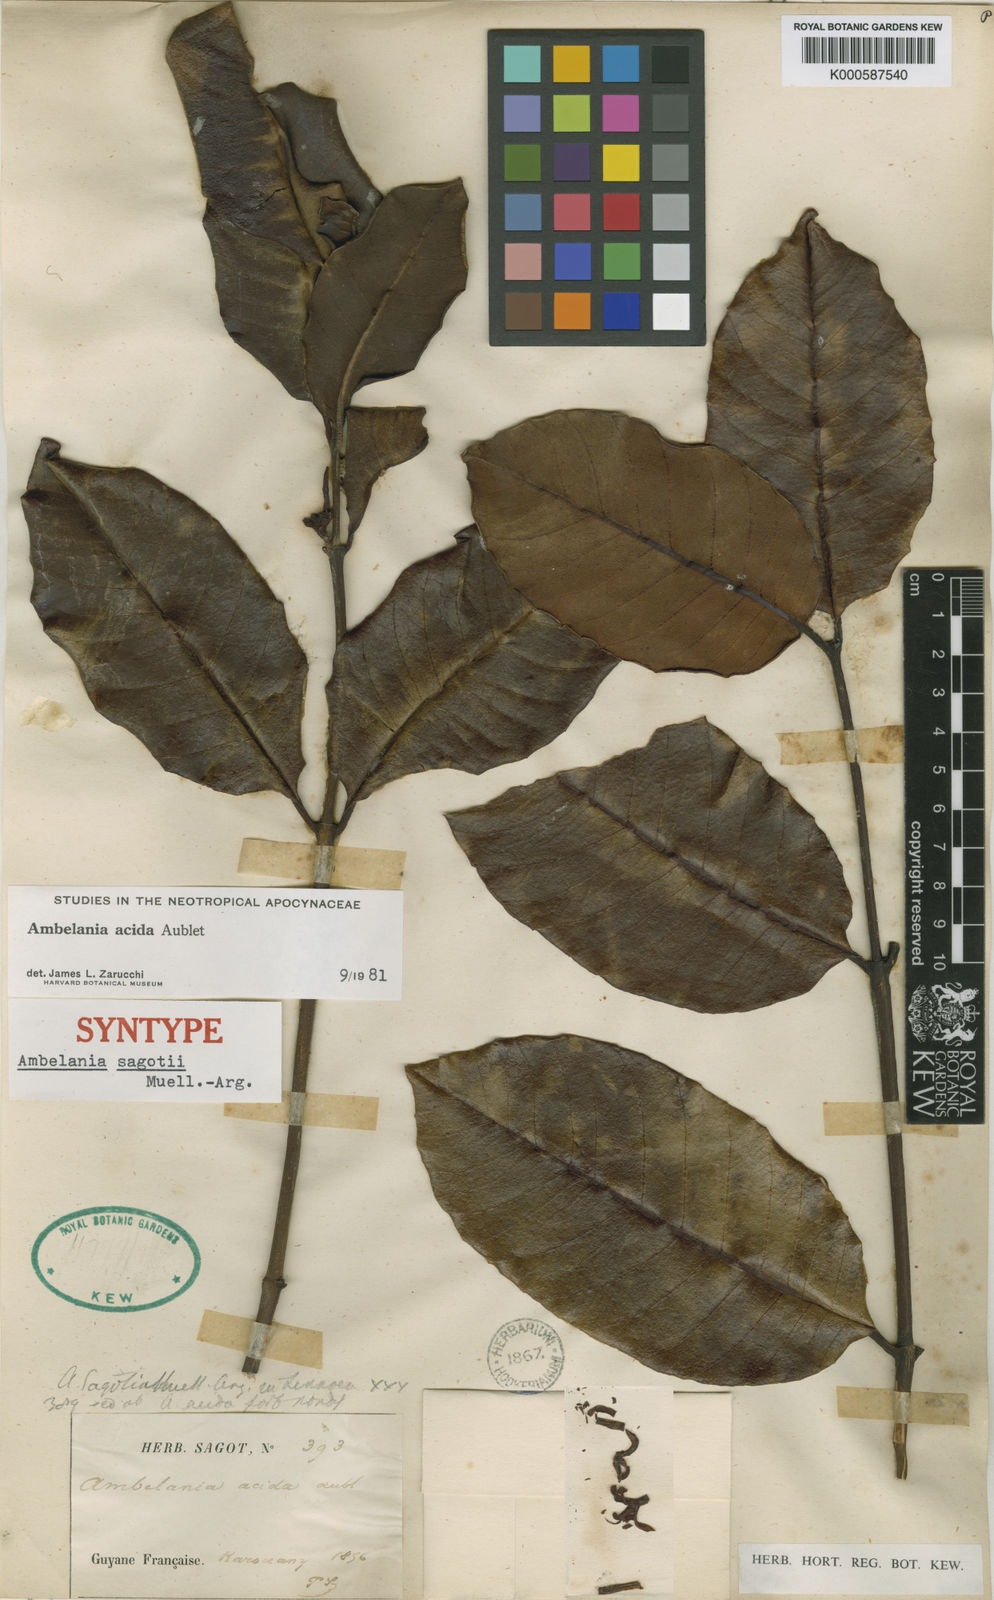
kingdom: Plantae
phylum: Tracheophyta
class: Magnoliopsida
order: Gentianales
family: Apocynaceae
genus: Ambelania
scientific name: Ambelania acida
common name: Bagasse
